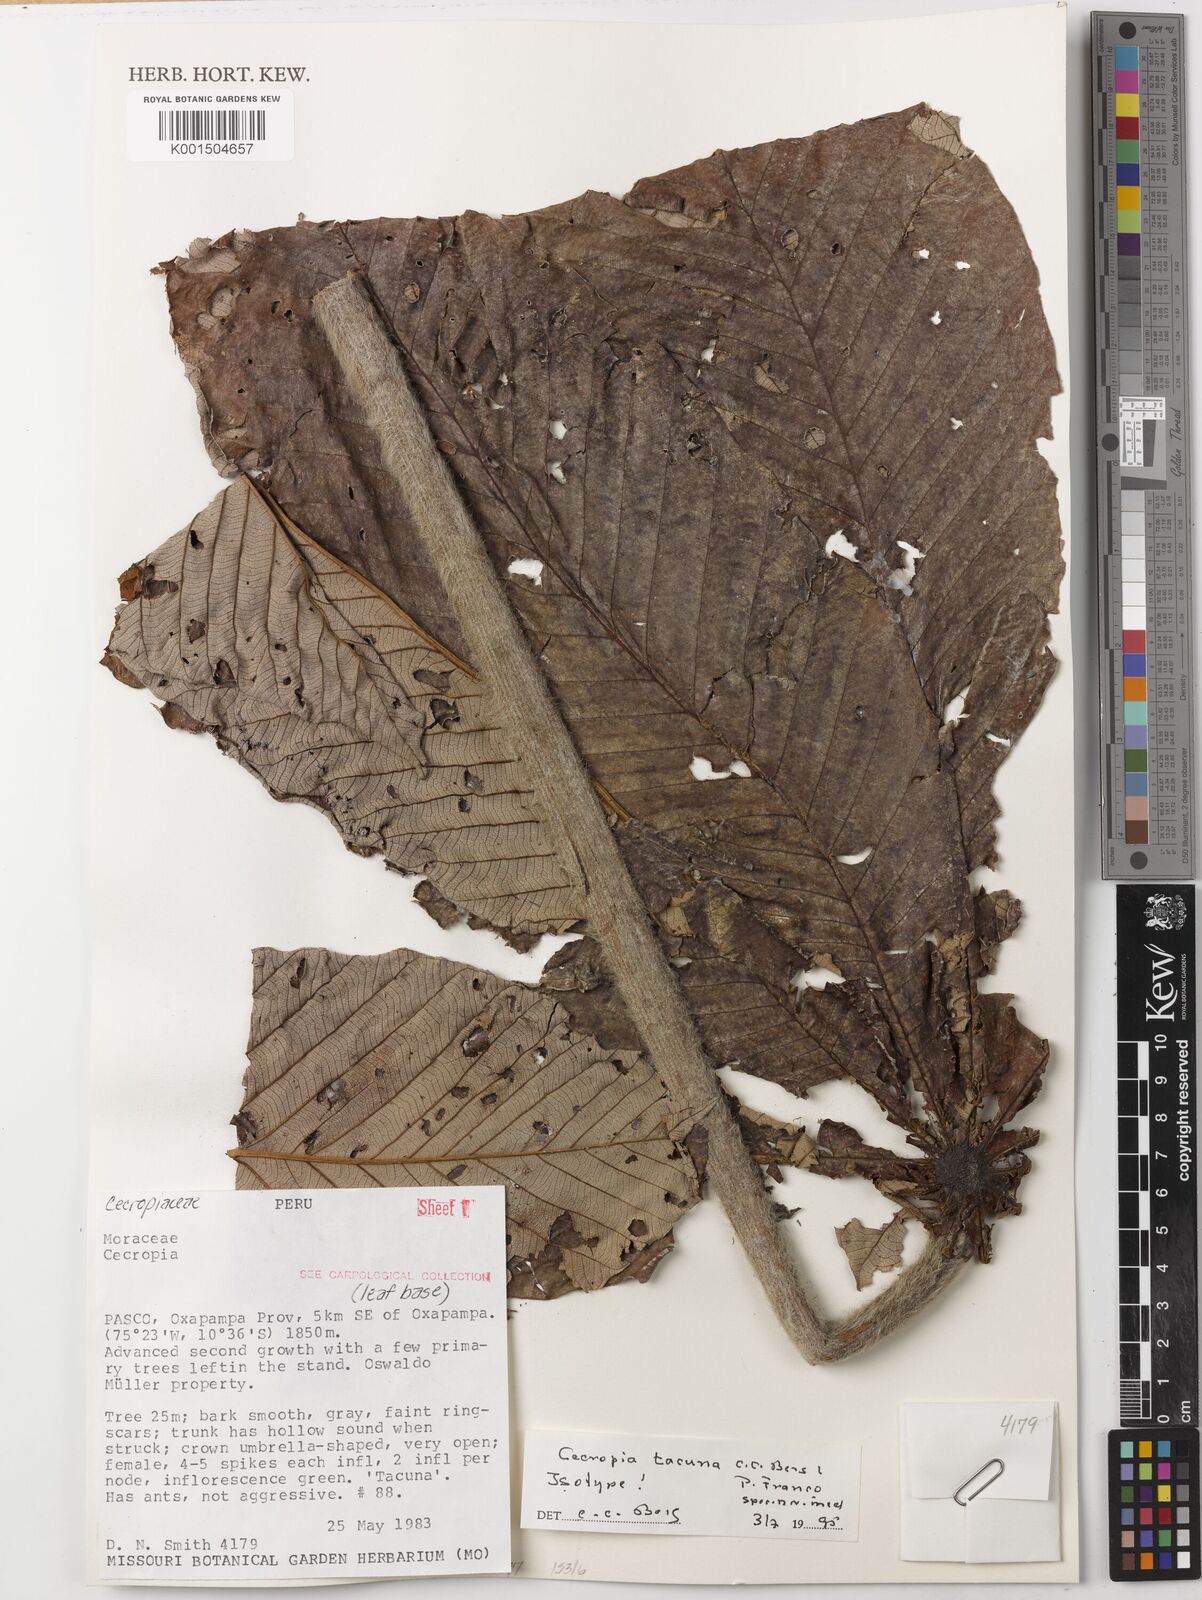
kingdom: Plantae
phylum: Tracheophyta
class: Magnoliopsida
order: Rosales
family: Urticaceae
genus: Cecropia
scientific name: Cecropia tacuna
